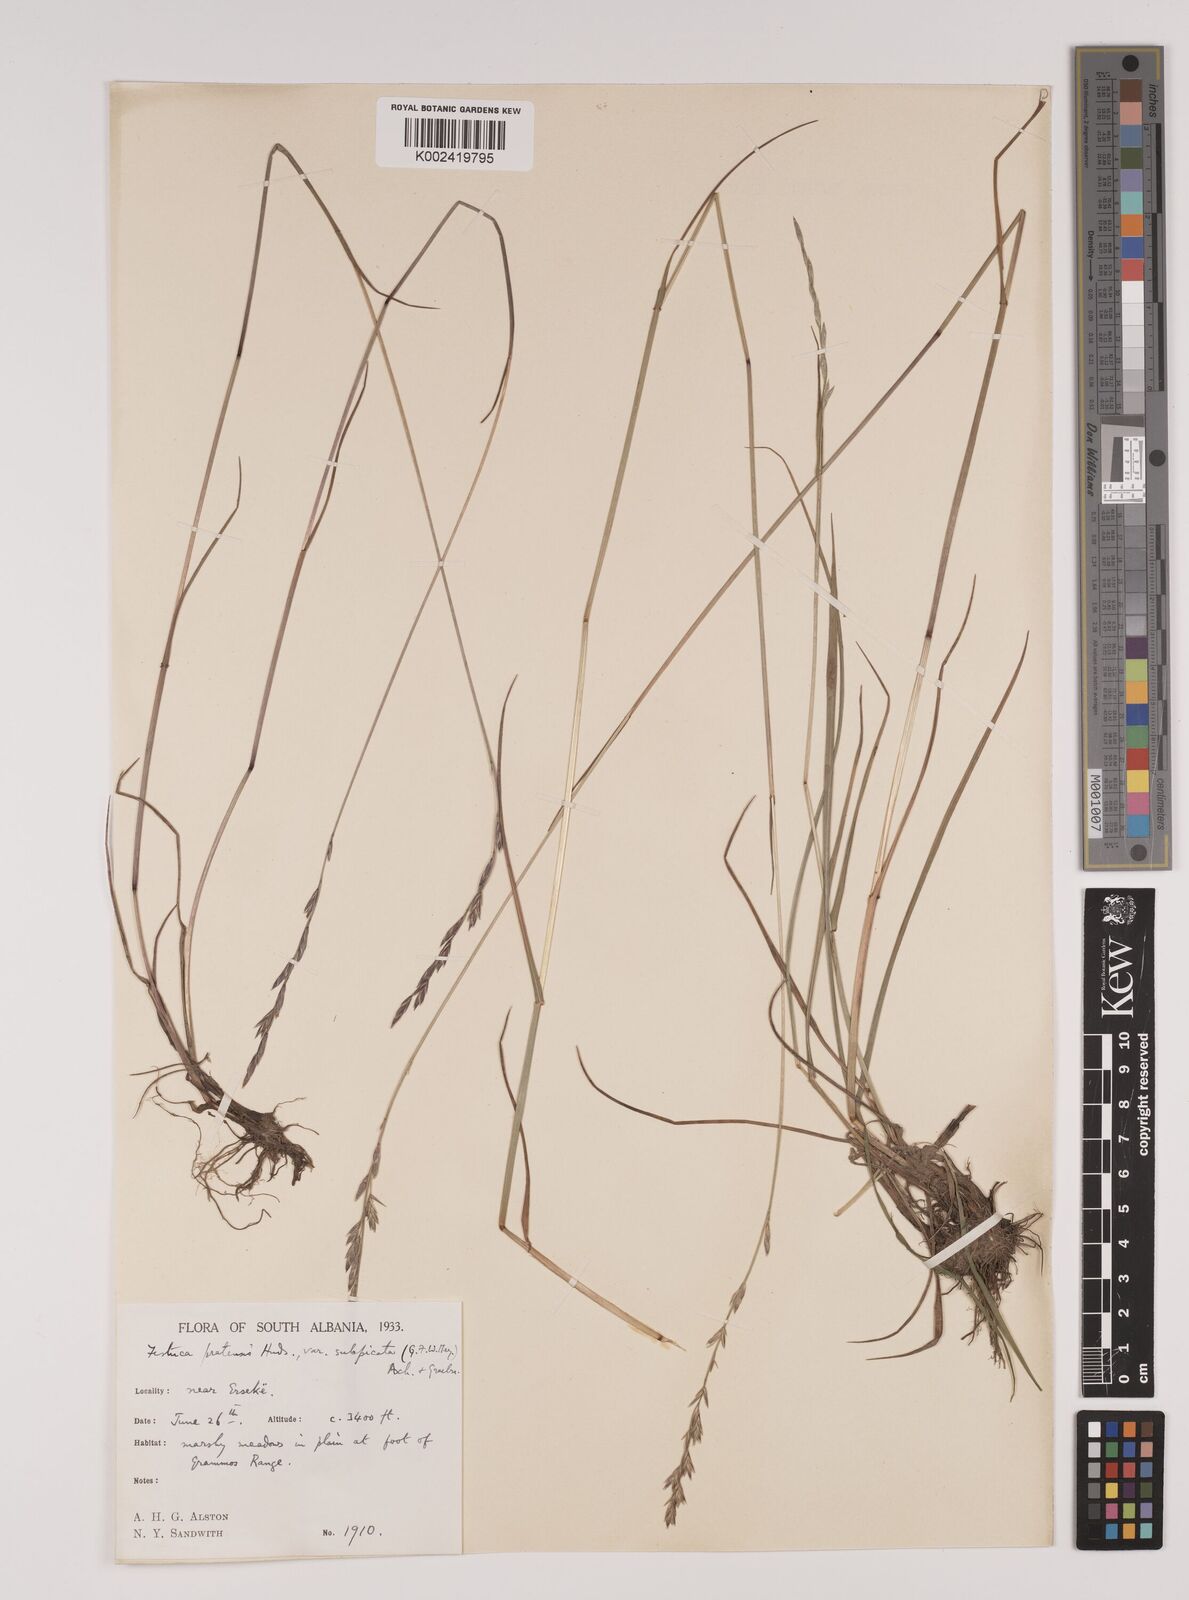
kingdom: Plantae
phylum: Tracheophyta
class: Liliopsida
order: Poales
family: Poaceae
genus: Festuca
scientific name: Festuca
